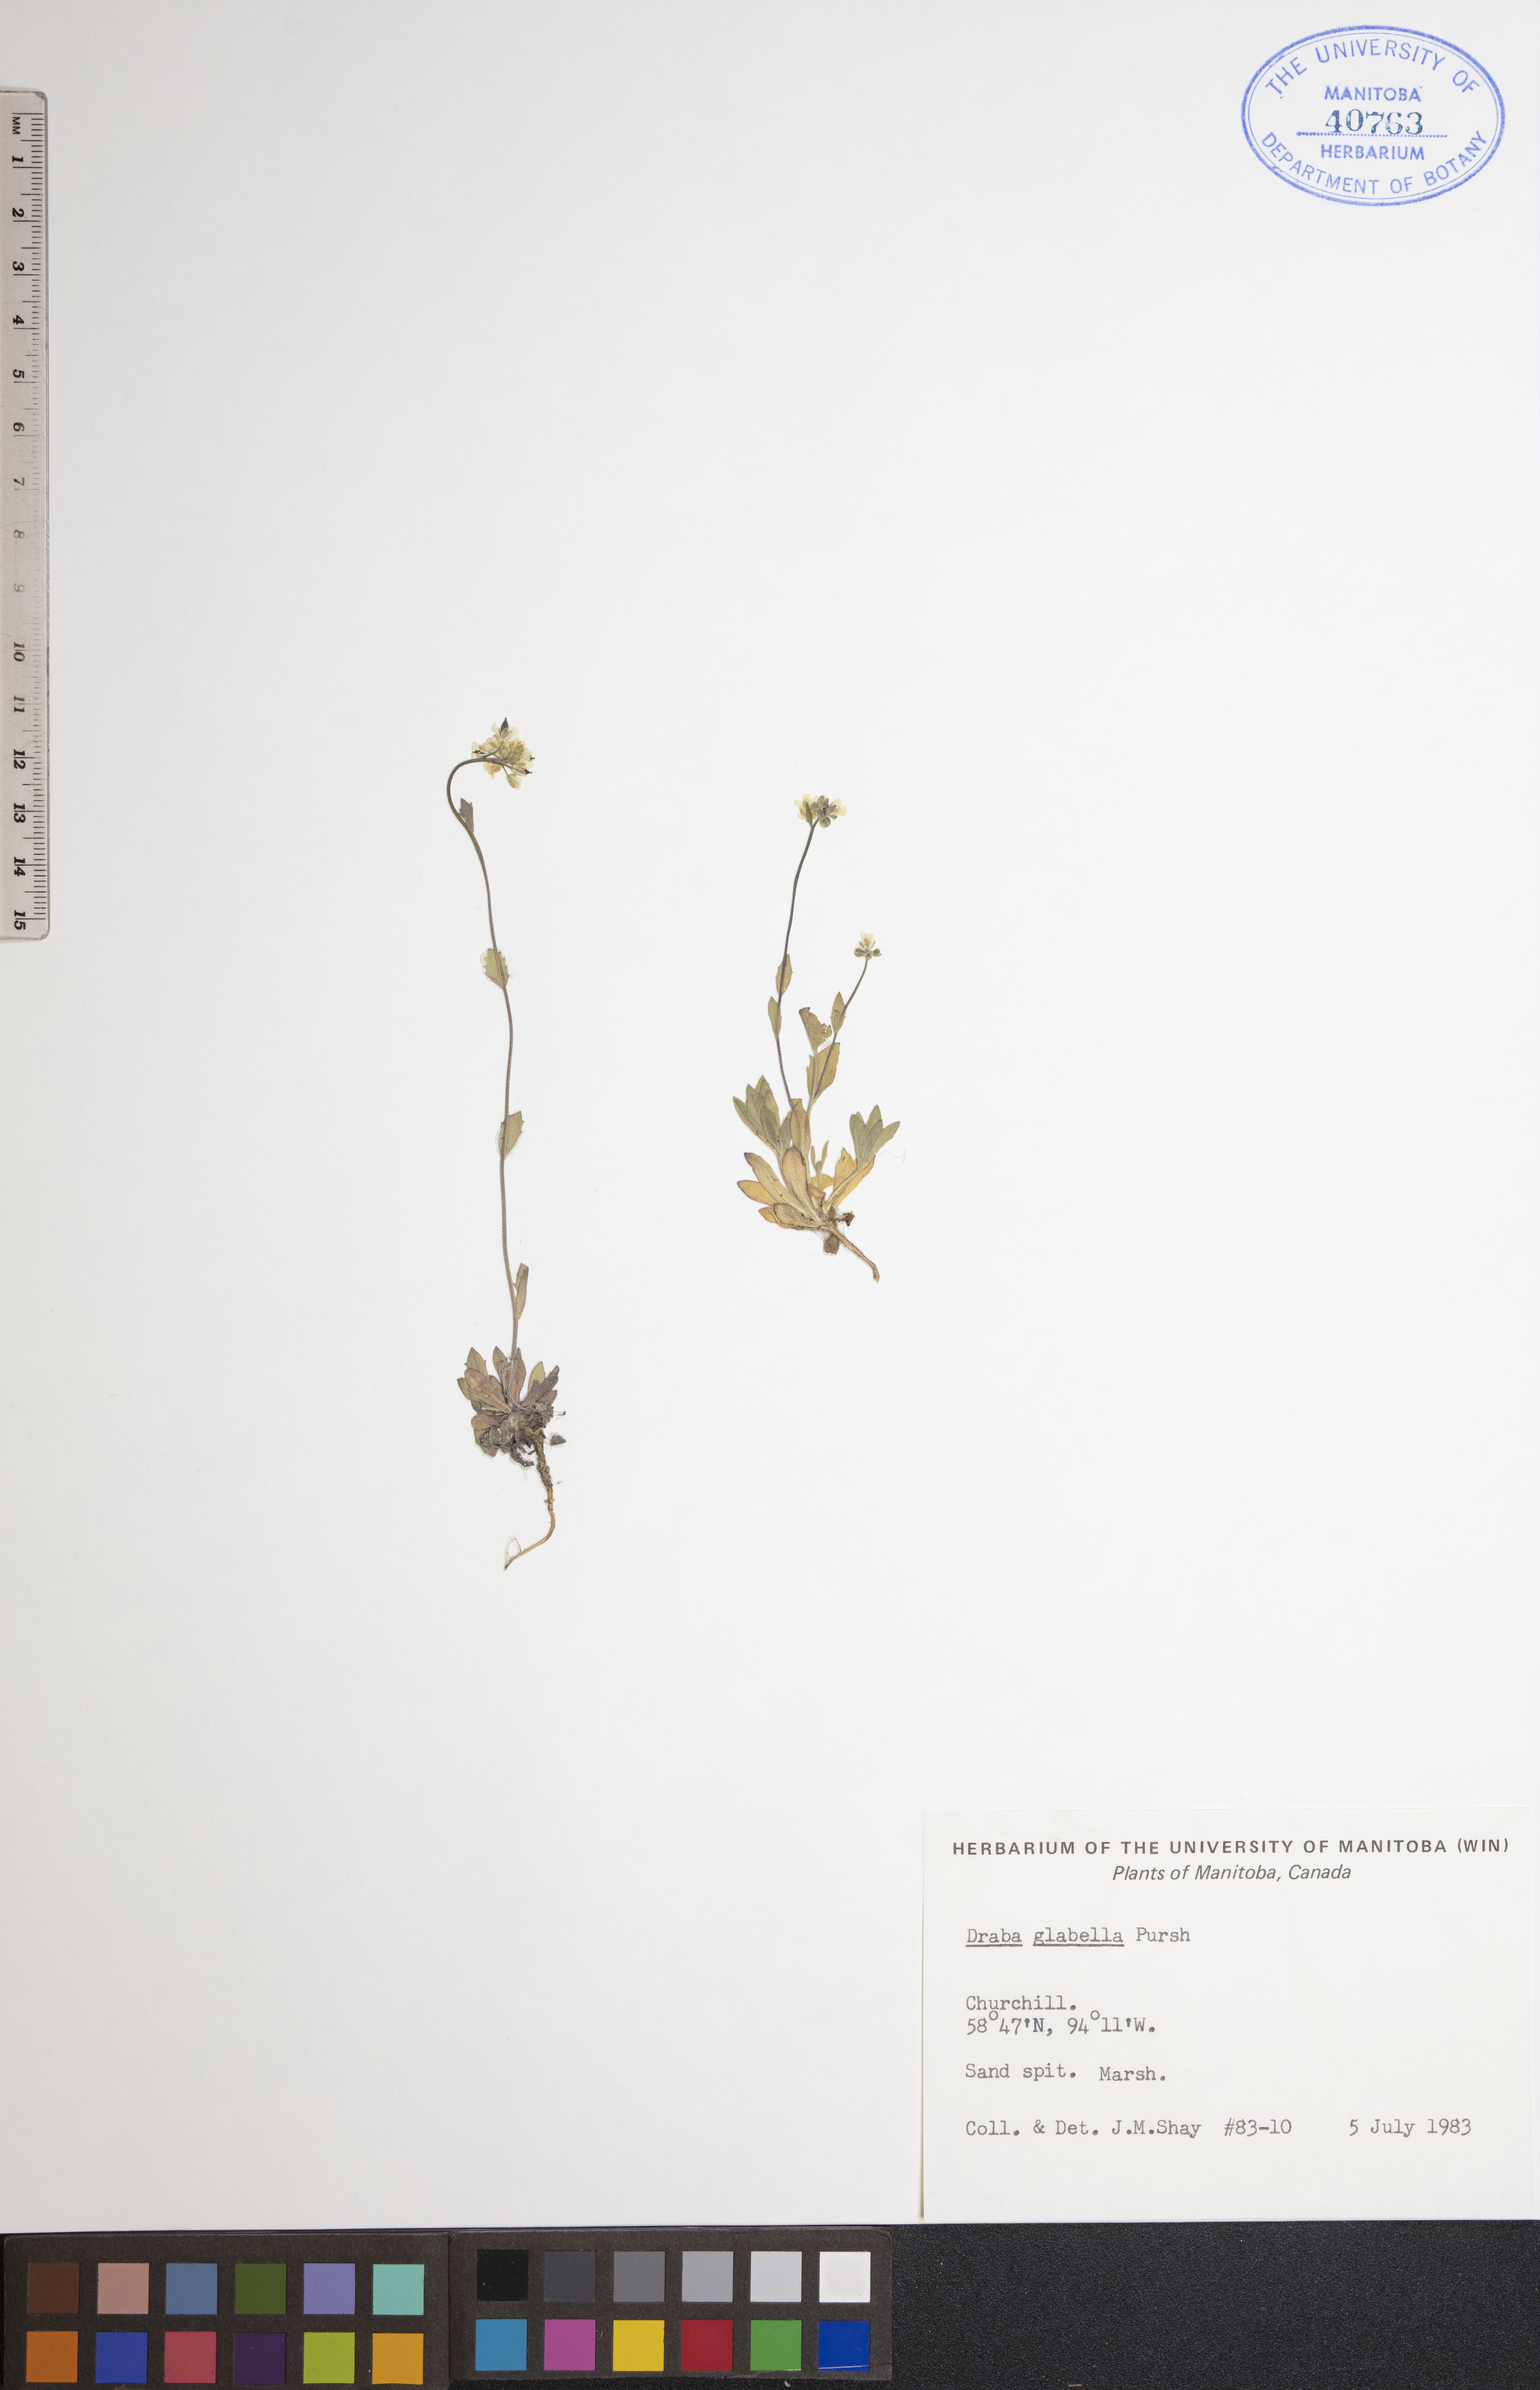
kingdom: Plantae
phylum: Tracheophyta
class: Magnoliopsida
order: Brassicales
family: Brassicaceae
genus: Draba
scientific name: Draba glabella
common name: Glaucous draba
